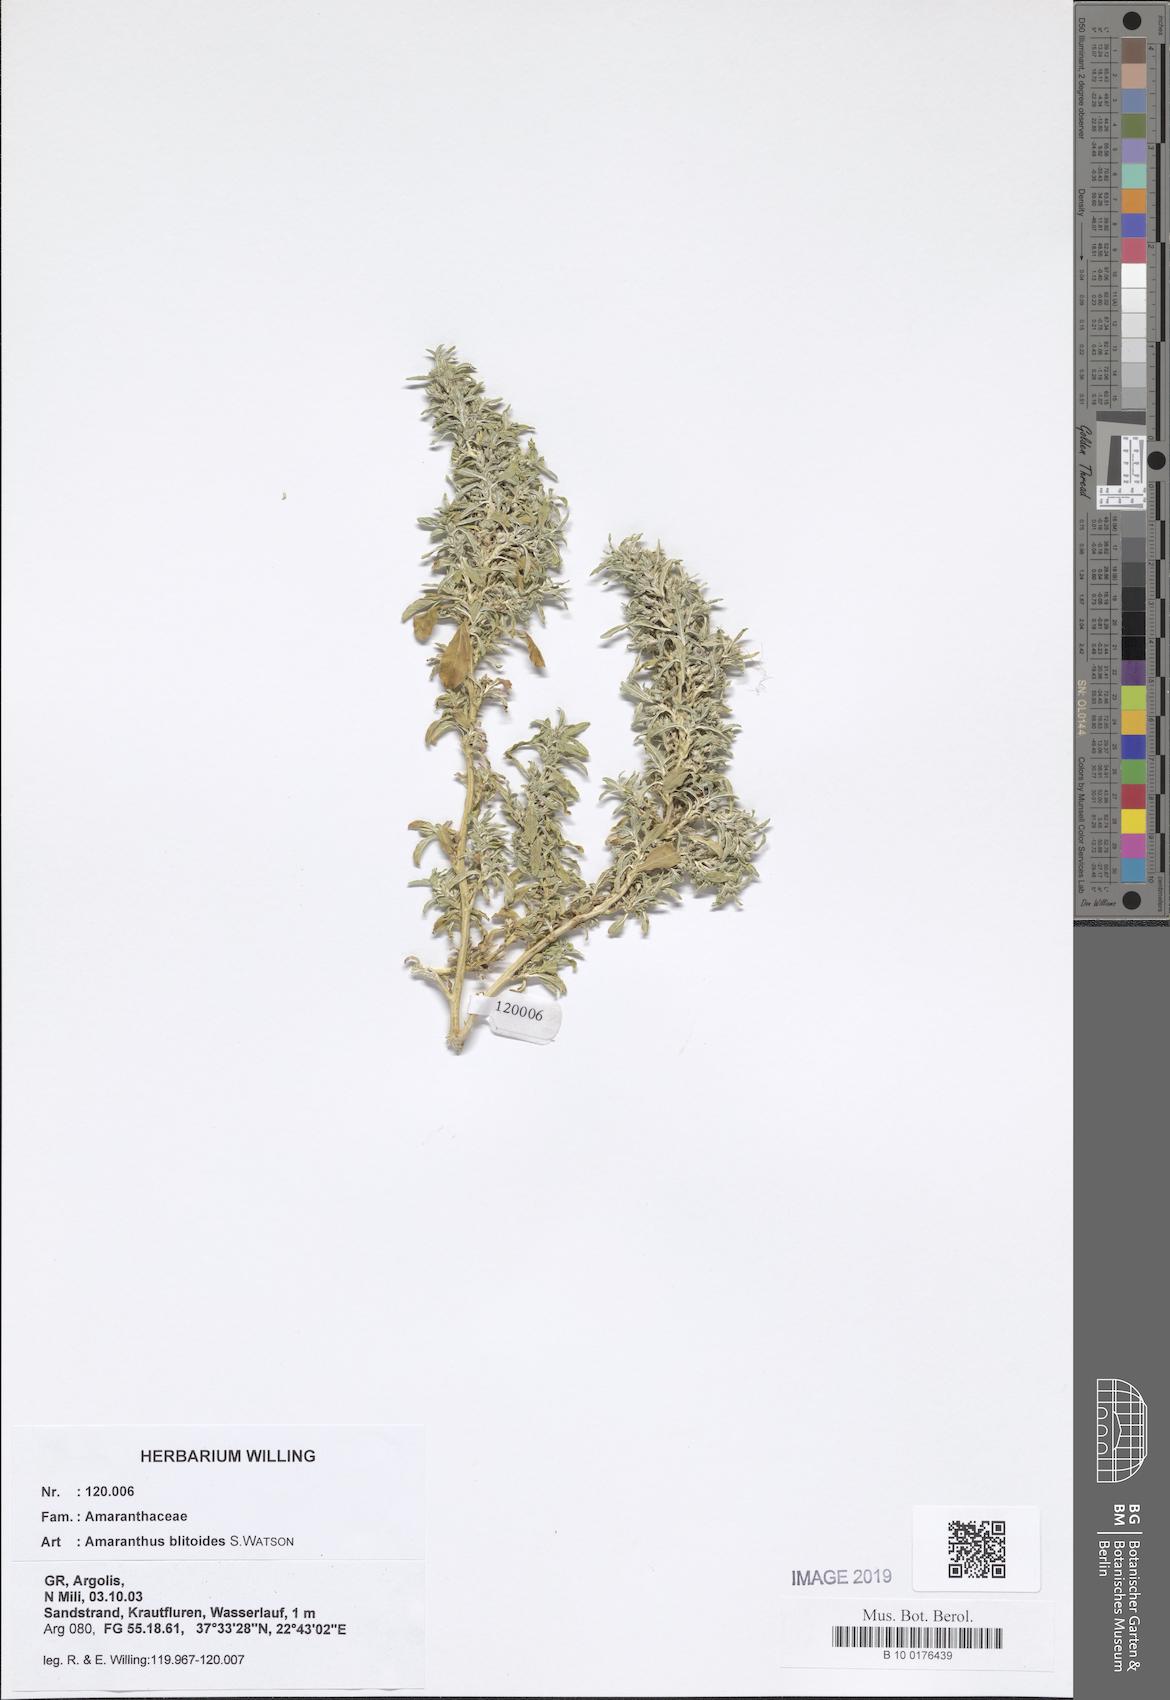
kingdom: Plantae
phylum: Tracheophyta
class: Magnoliopsida
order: Caryophyllales
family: Amaranthaceae
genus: Amaranthus
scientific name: Amaranthus blitoides
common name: Prostrate pigweed
